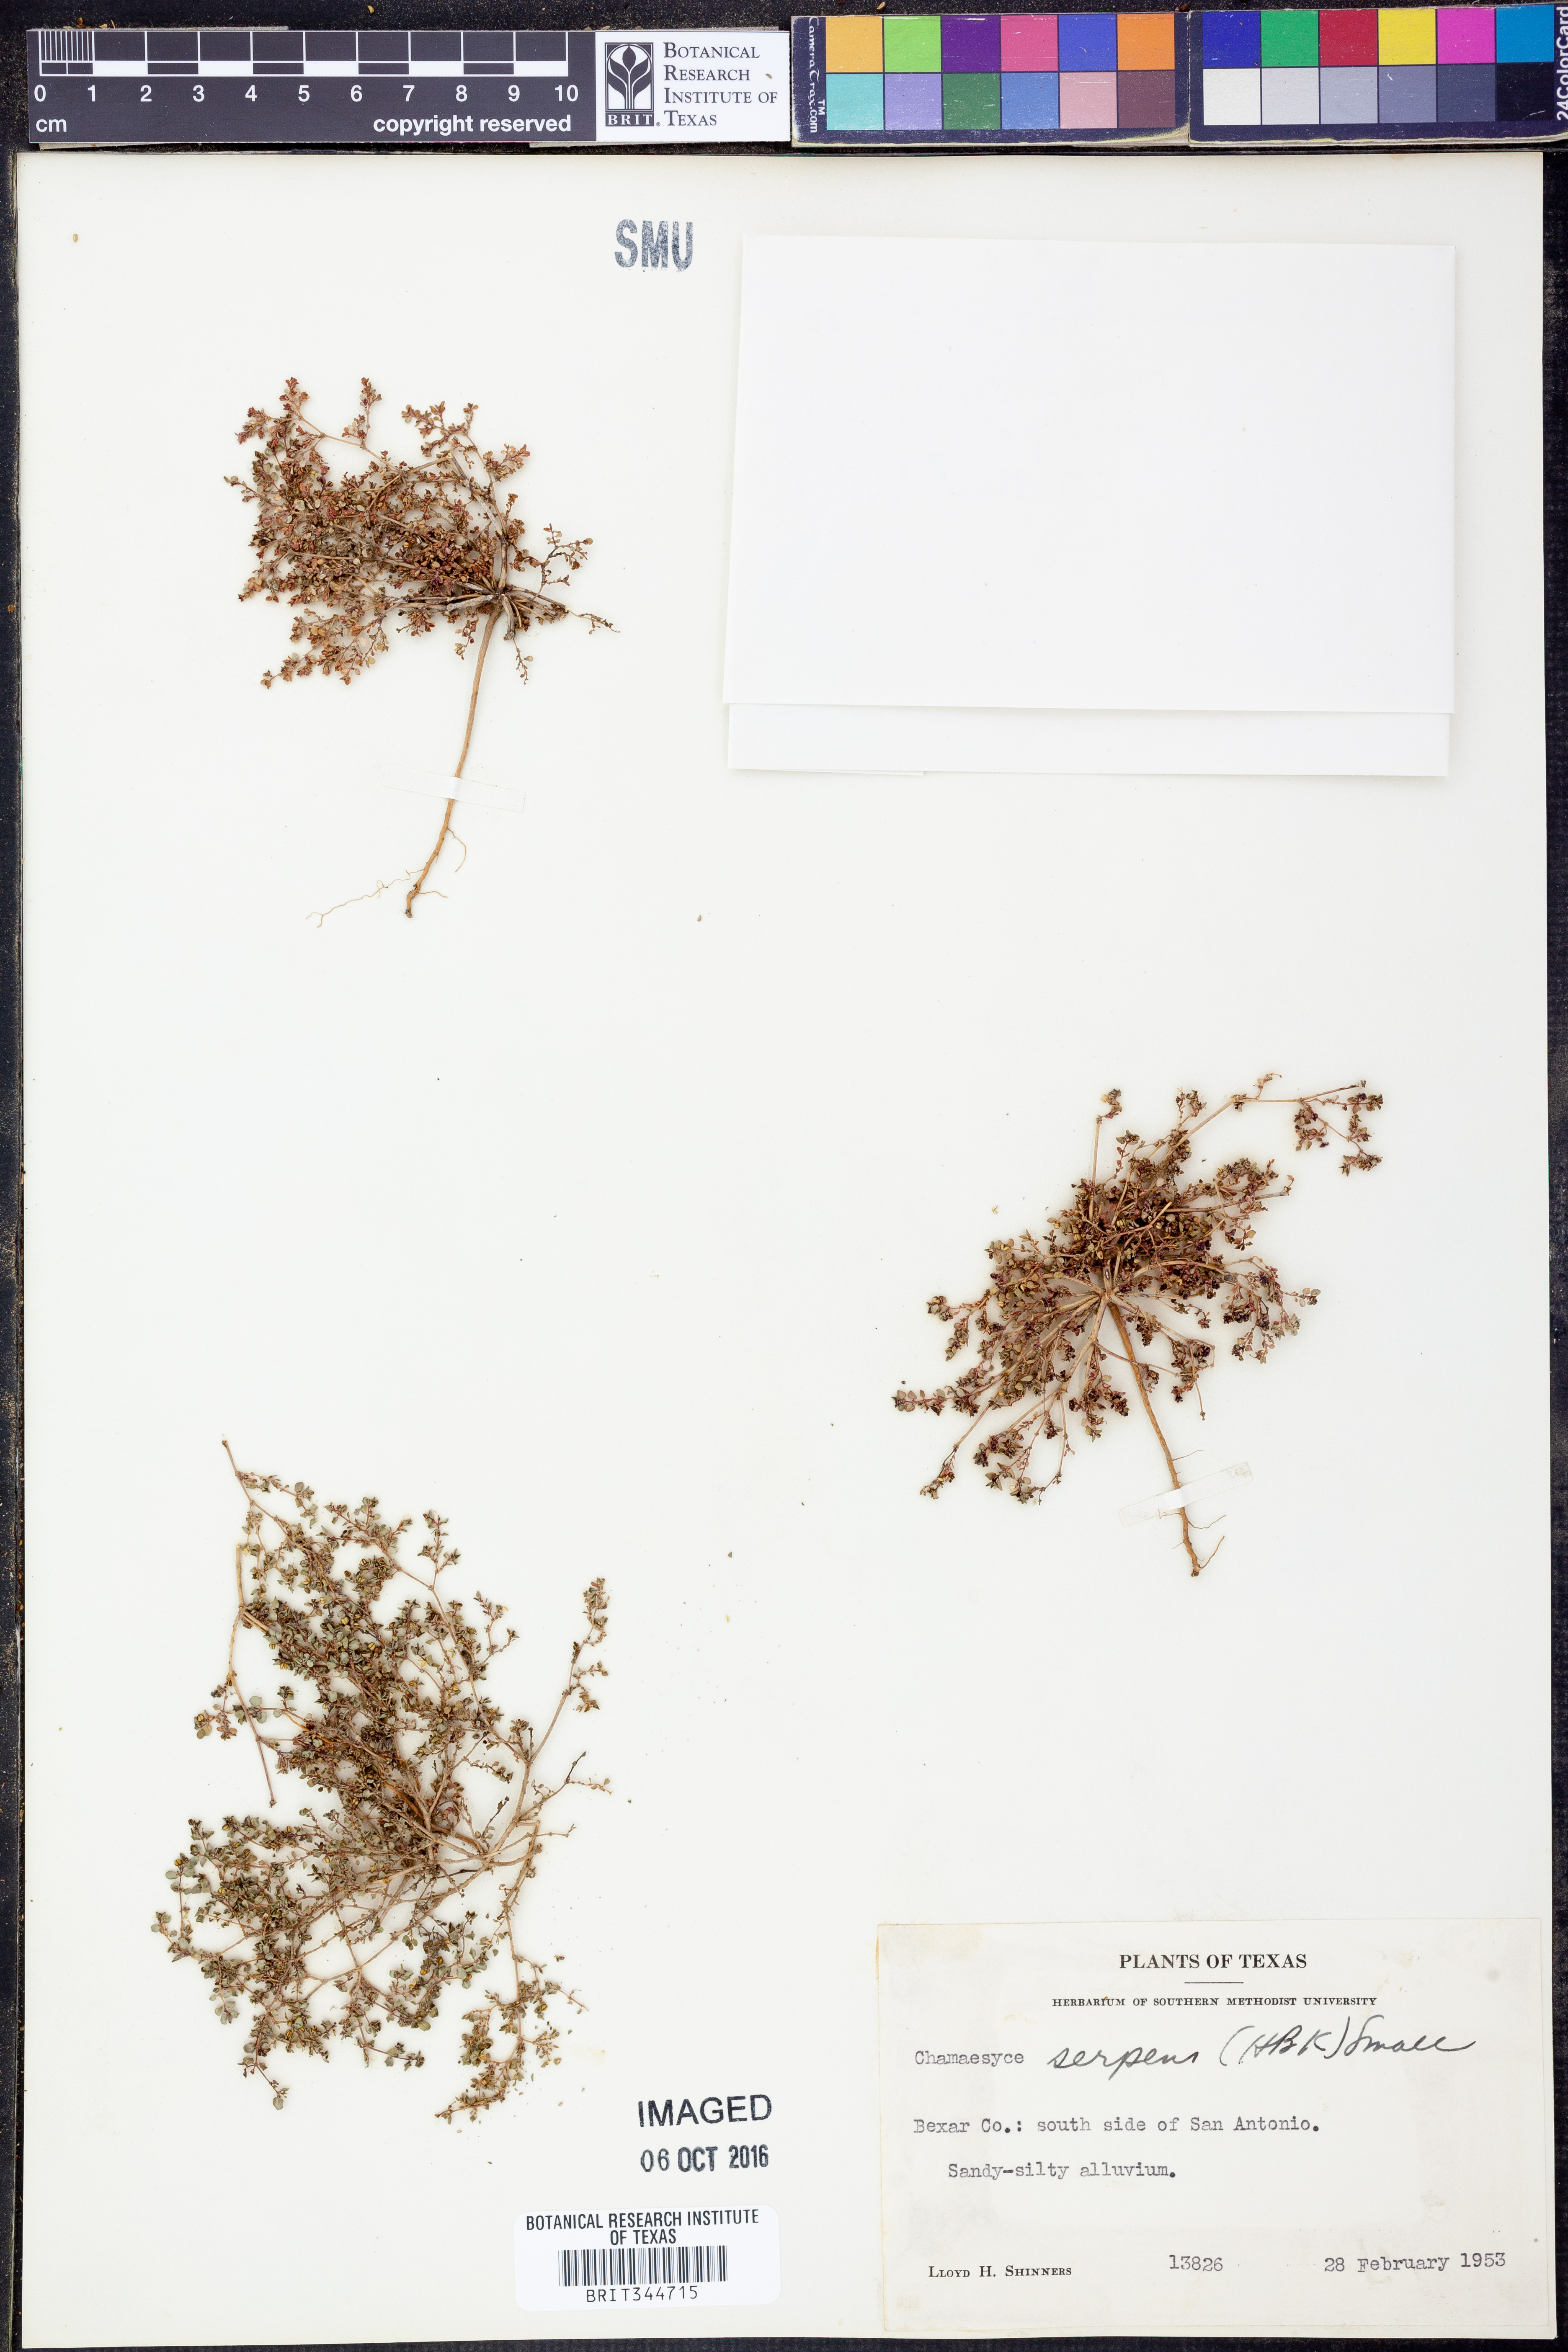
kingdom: Plantae
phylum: Tracheophyta
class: Magnoliopsida
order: Malpighiales
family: Euphorbiaceae
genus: Euphorbia
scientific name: Euphorbia serpens
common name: Matted sandmat
